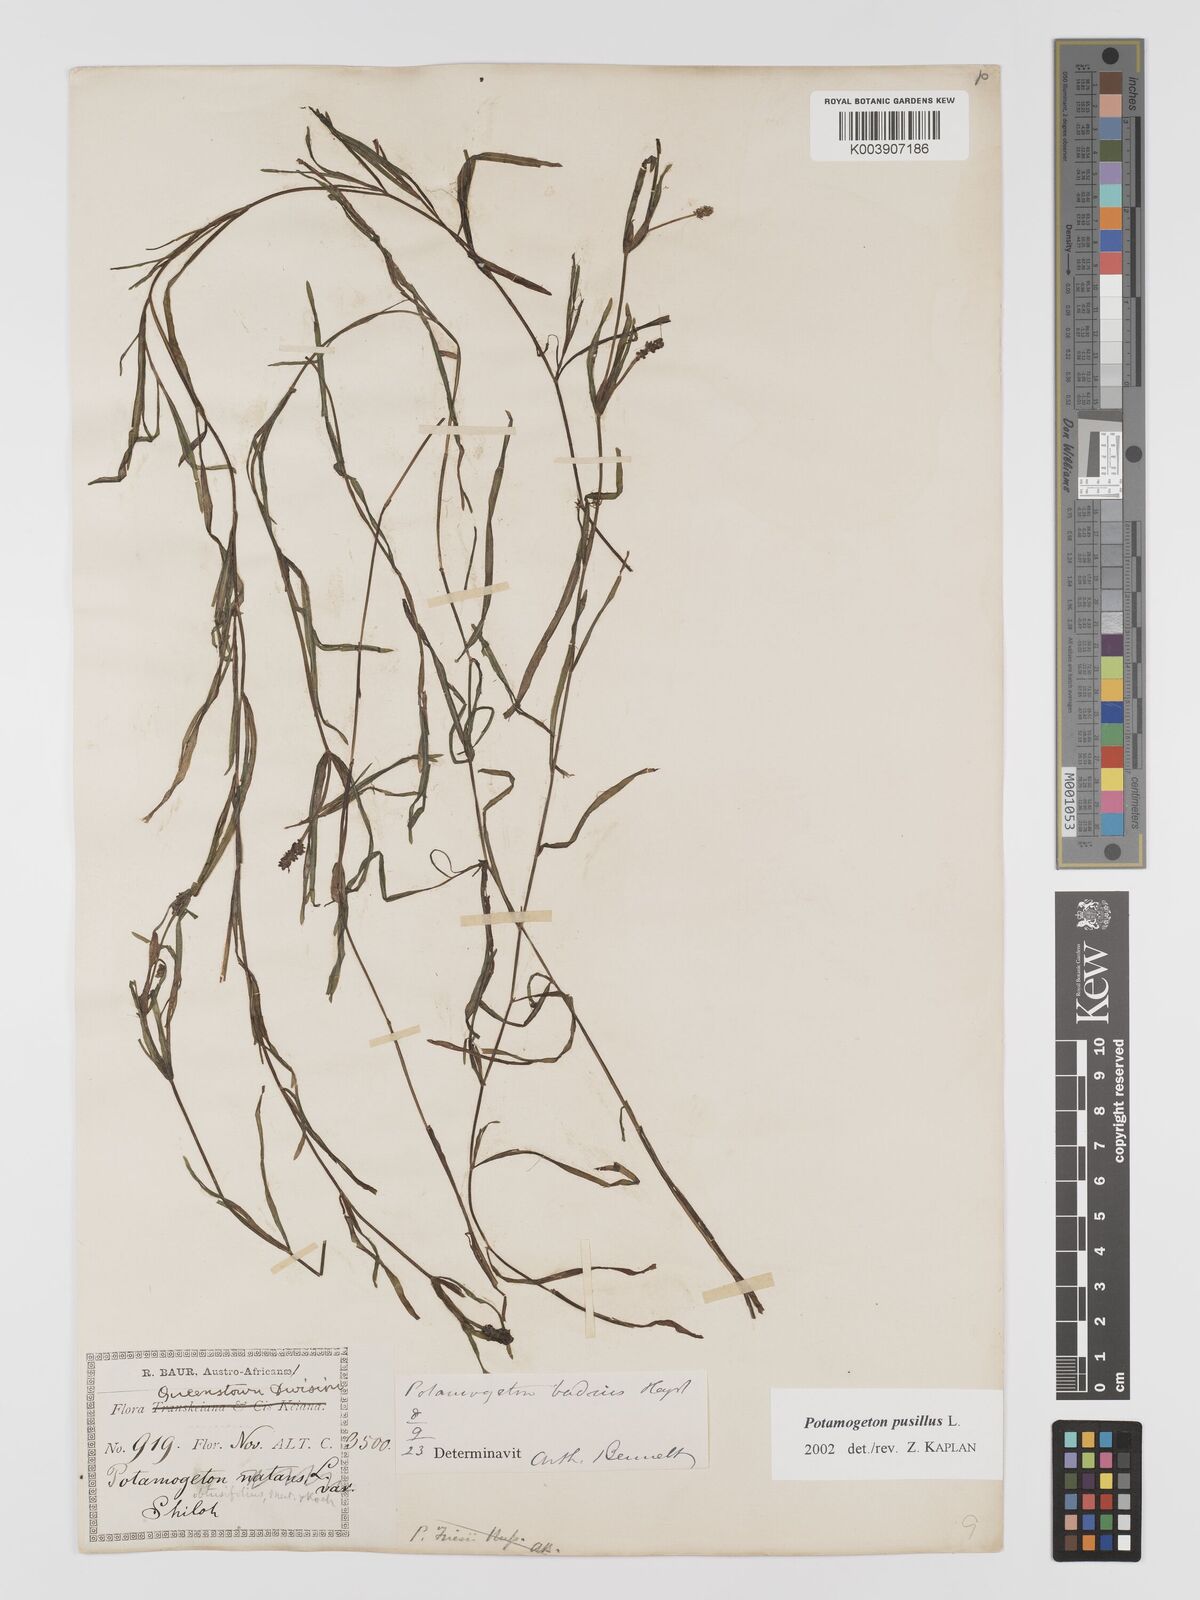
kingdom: Plantae
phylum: Tracheophyta
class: Liliopsida
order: Alismatales
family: Potamogetonaceae
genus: Potamogeton
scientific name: Potamogeton pusillus
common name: Lesser pondweed
